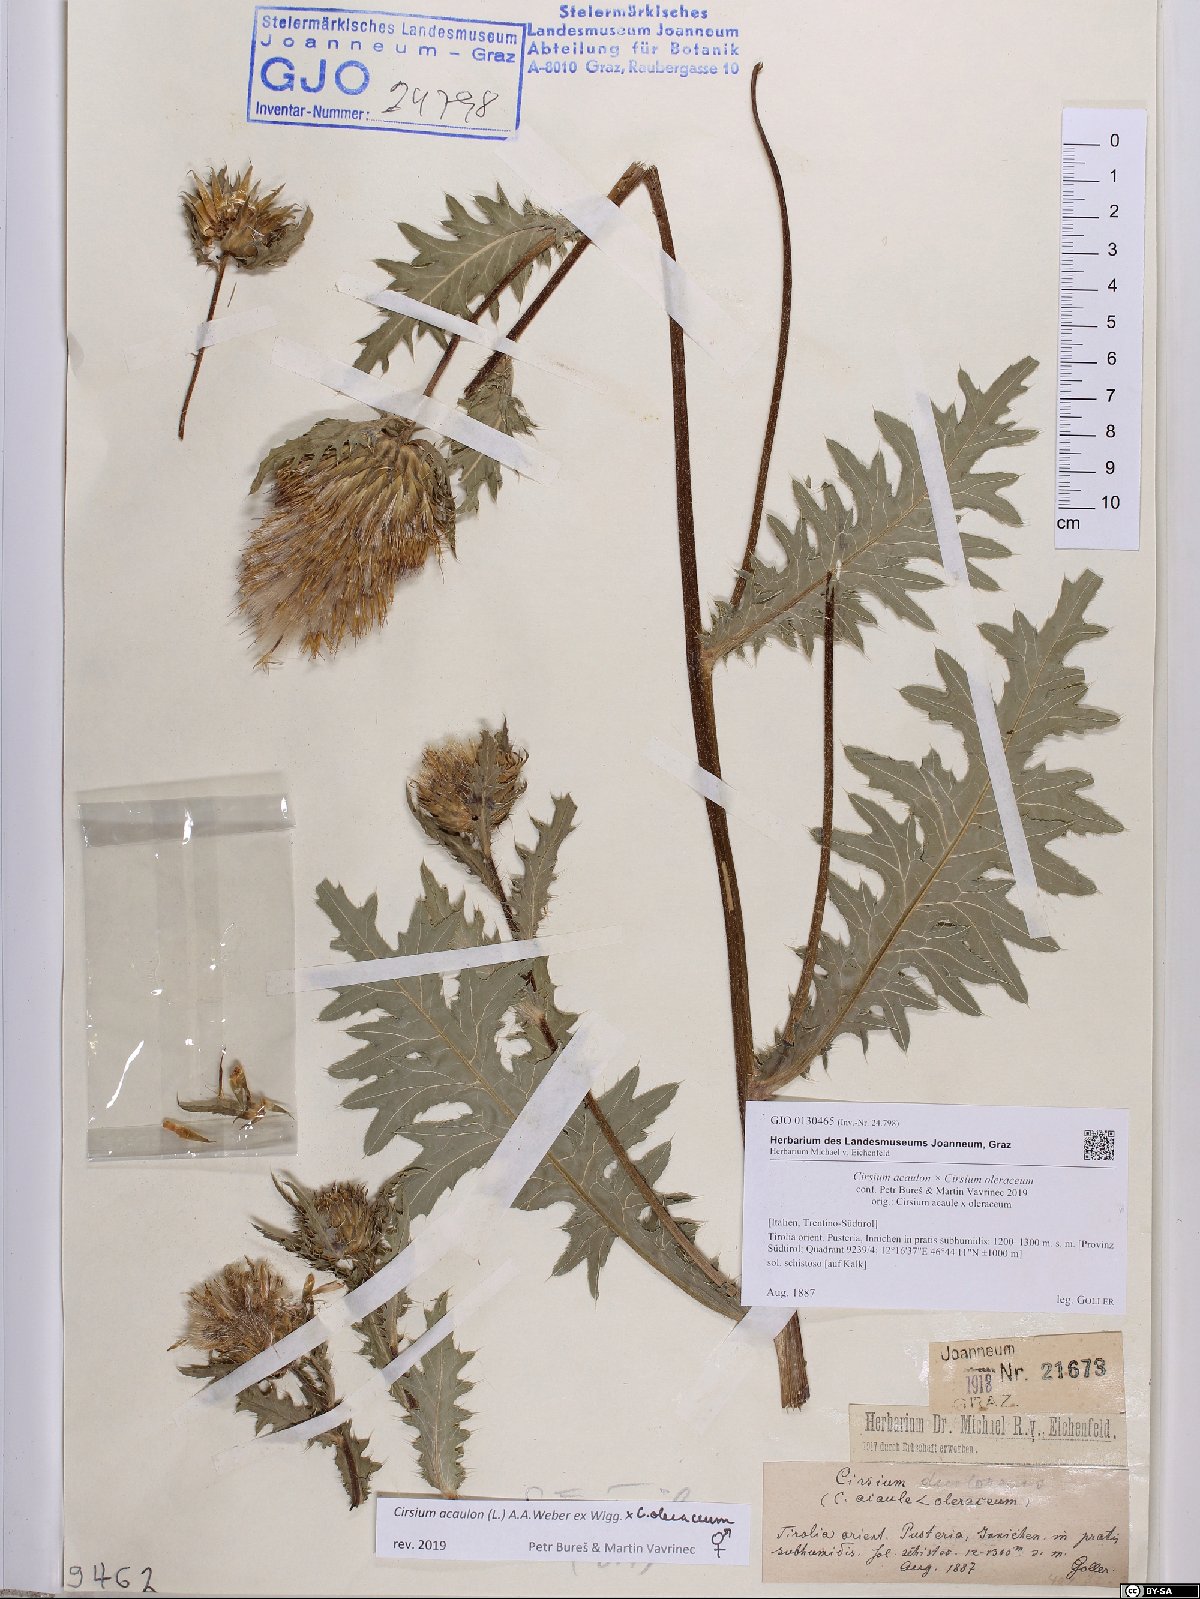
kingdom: Plantae
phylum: Tracheophyta
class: Magnoliopsida
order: Asterales
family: Asteraceae
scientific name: Asteraceae
